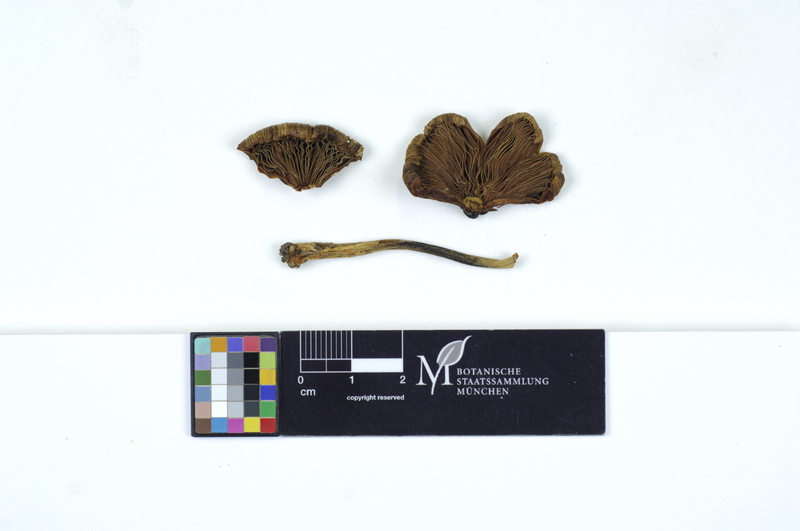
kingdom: Fungi
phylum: Basidiomycota
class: Agaricomycetes
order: Agaricales
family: Inocybaceae
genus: Pseudosperma
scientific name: Pseudosperma rimosum
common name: Split fibrecap
